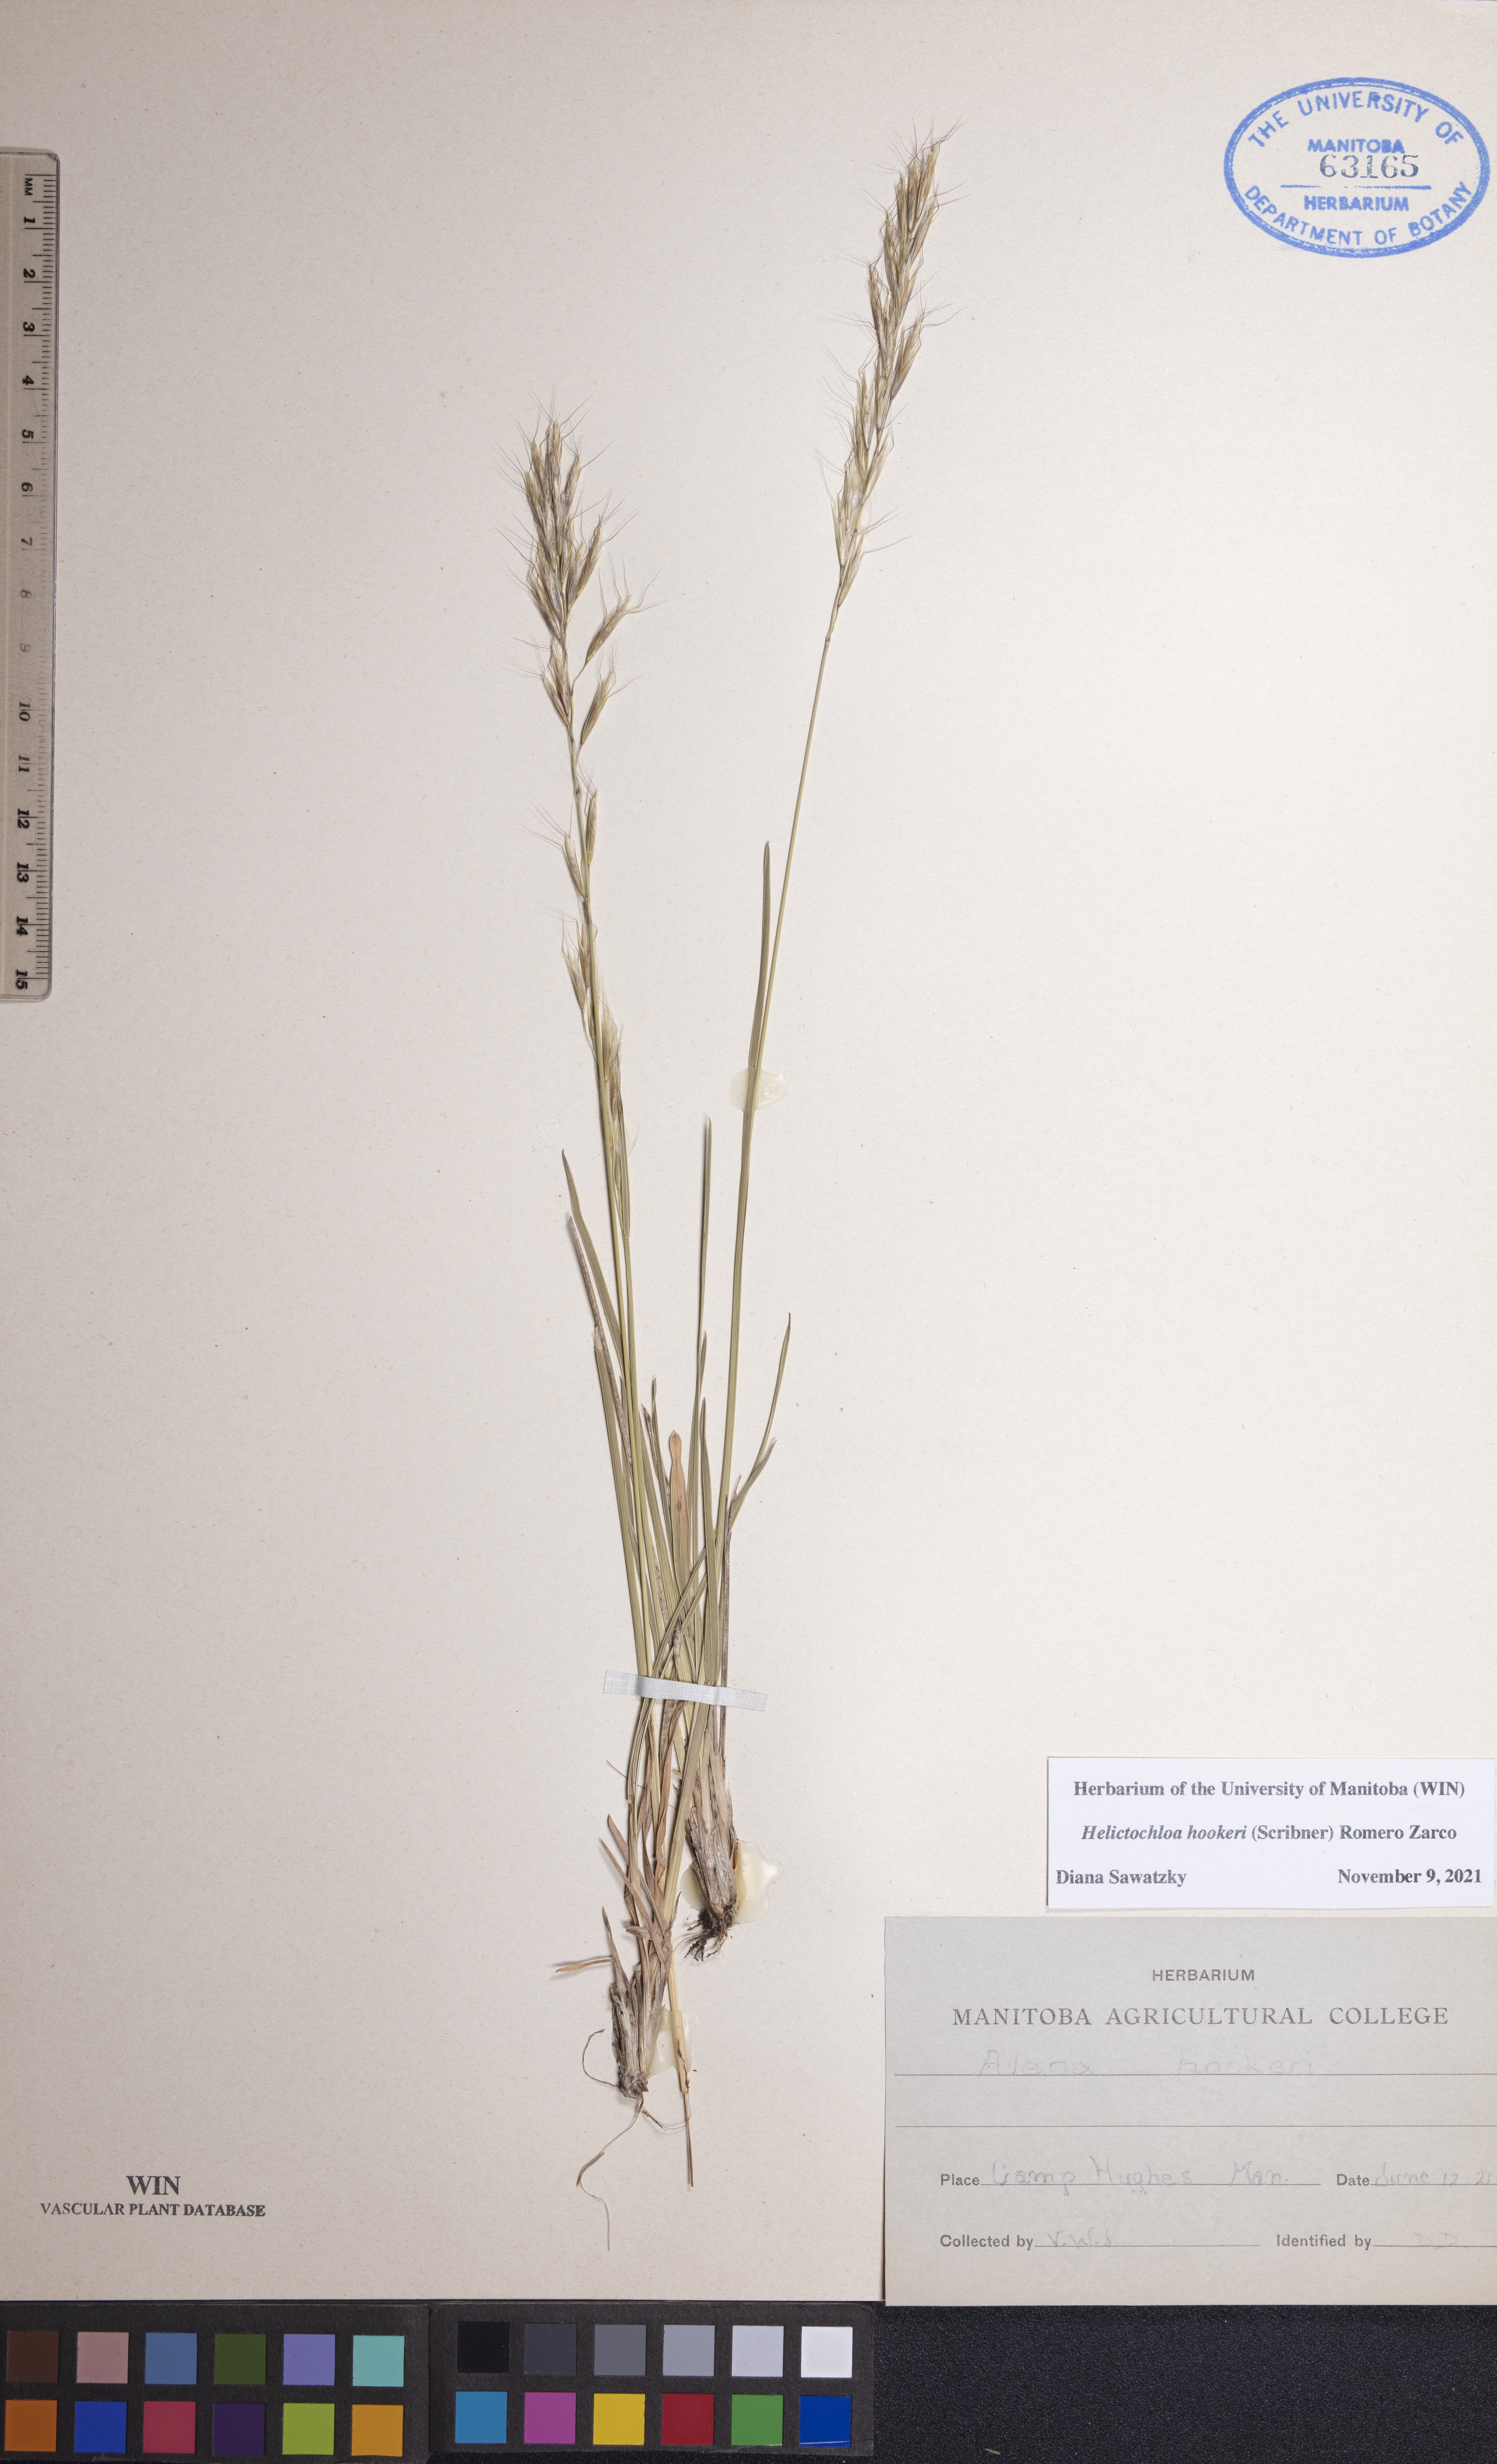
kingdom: Plantae
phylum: Tracheophyta
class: Liliopsida
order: Poales
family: Poaceae
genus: Helictochloa
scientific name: Helictochloa hookeri
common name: Hooker's alpine oatgrass
